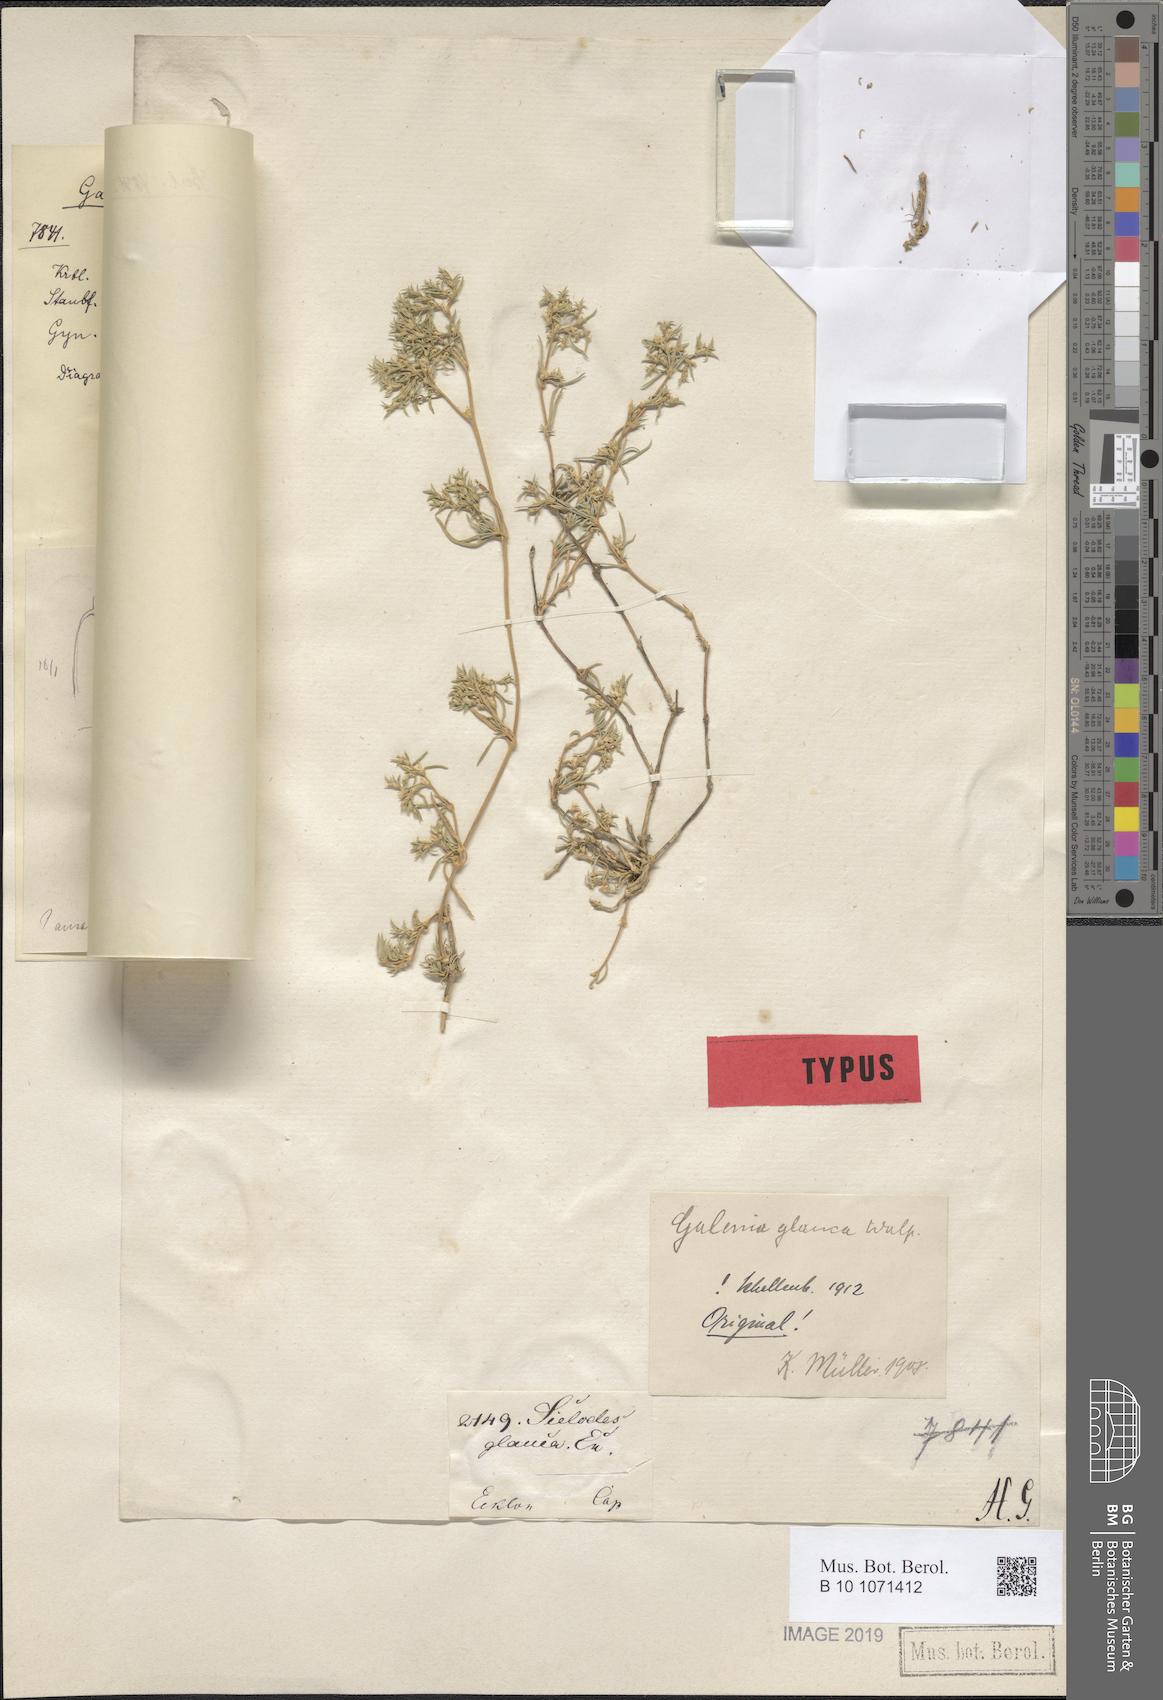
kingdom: Plantae
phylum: Tracheophyta
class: Magnoliopsida
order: Caryophyllales
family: Aizoaceae
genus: Aizoon
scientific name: Aizoon ecklonis
